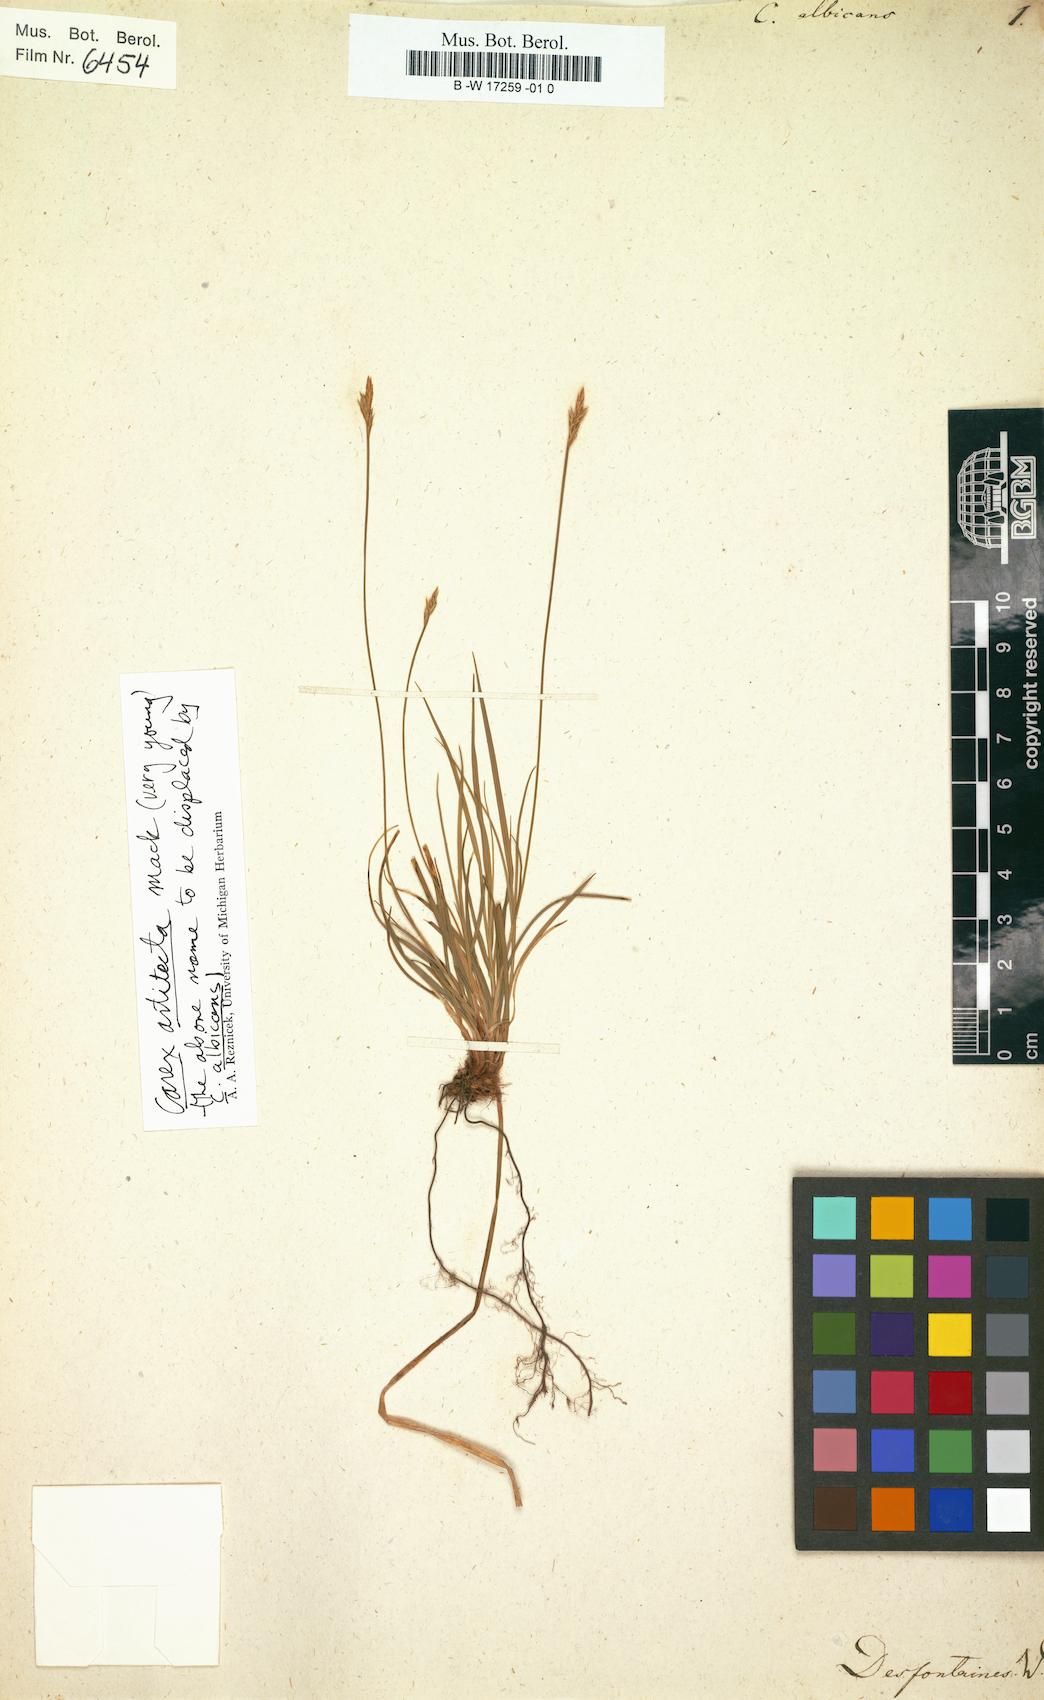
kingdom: Plantae
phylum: Tracheophyta
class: Liliopsida
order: Poales
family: Cyperaceae
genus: Carex
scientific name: Carex albicans
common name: Bellow-beaked sedge
